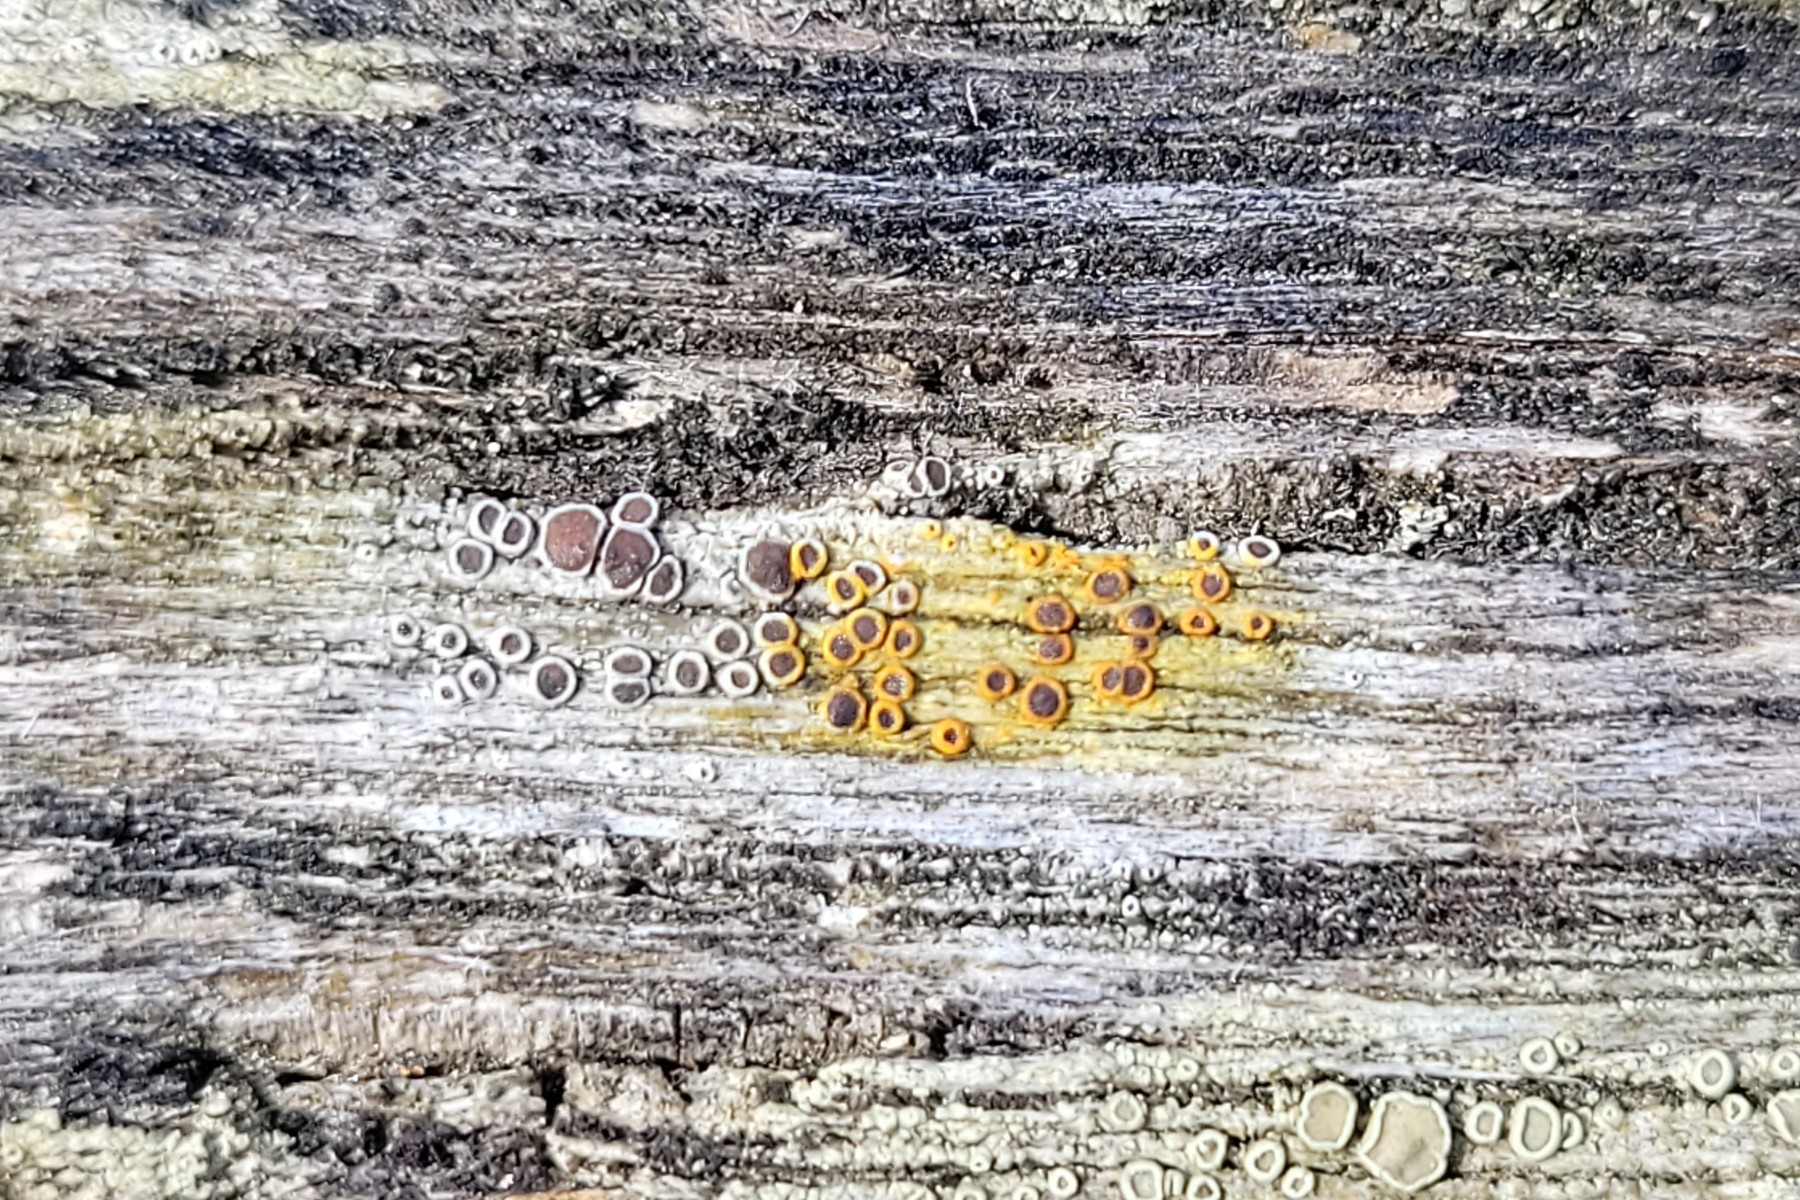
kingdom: Fungi
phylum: Ascomycota
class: Lecanoromycetes
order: Lecanorales
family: Lecanoraceae
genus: Lecanora
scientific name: Lecanora pulicaris
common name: almindelig kantskivelav
